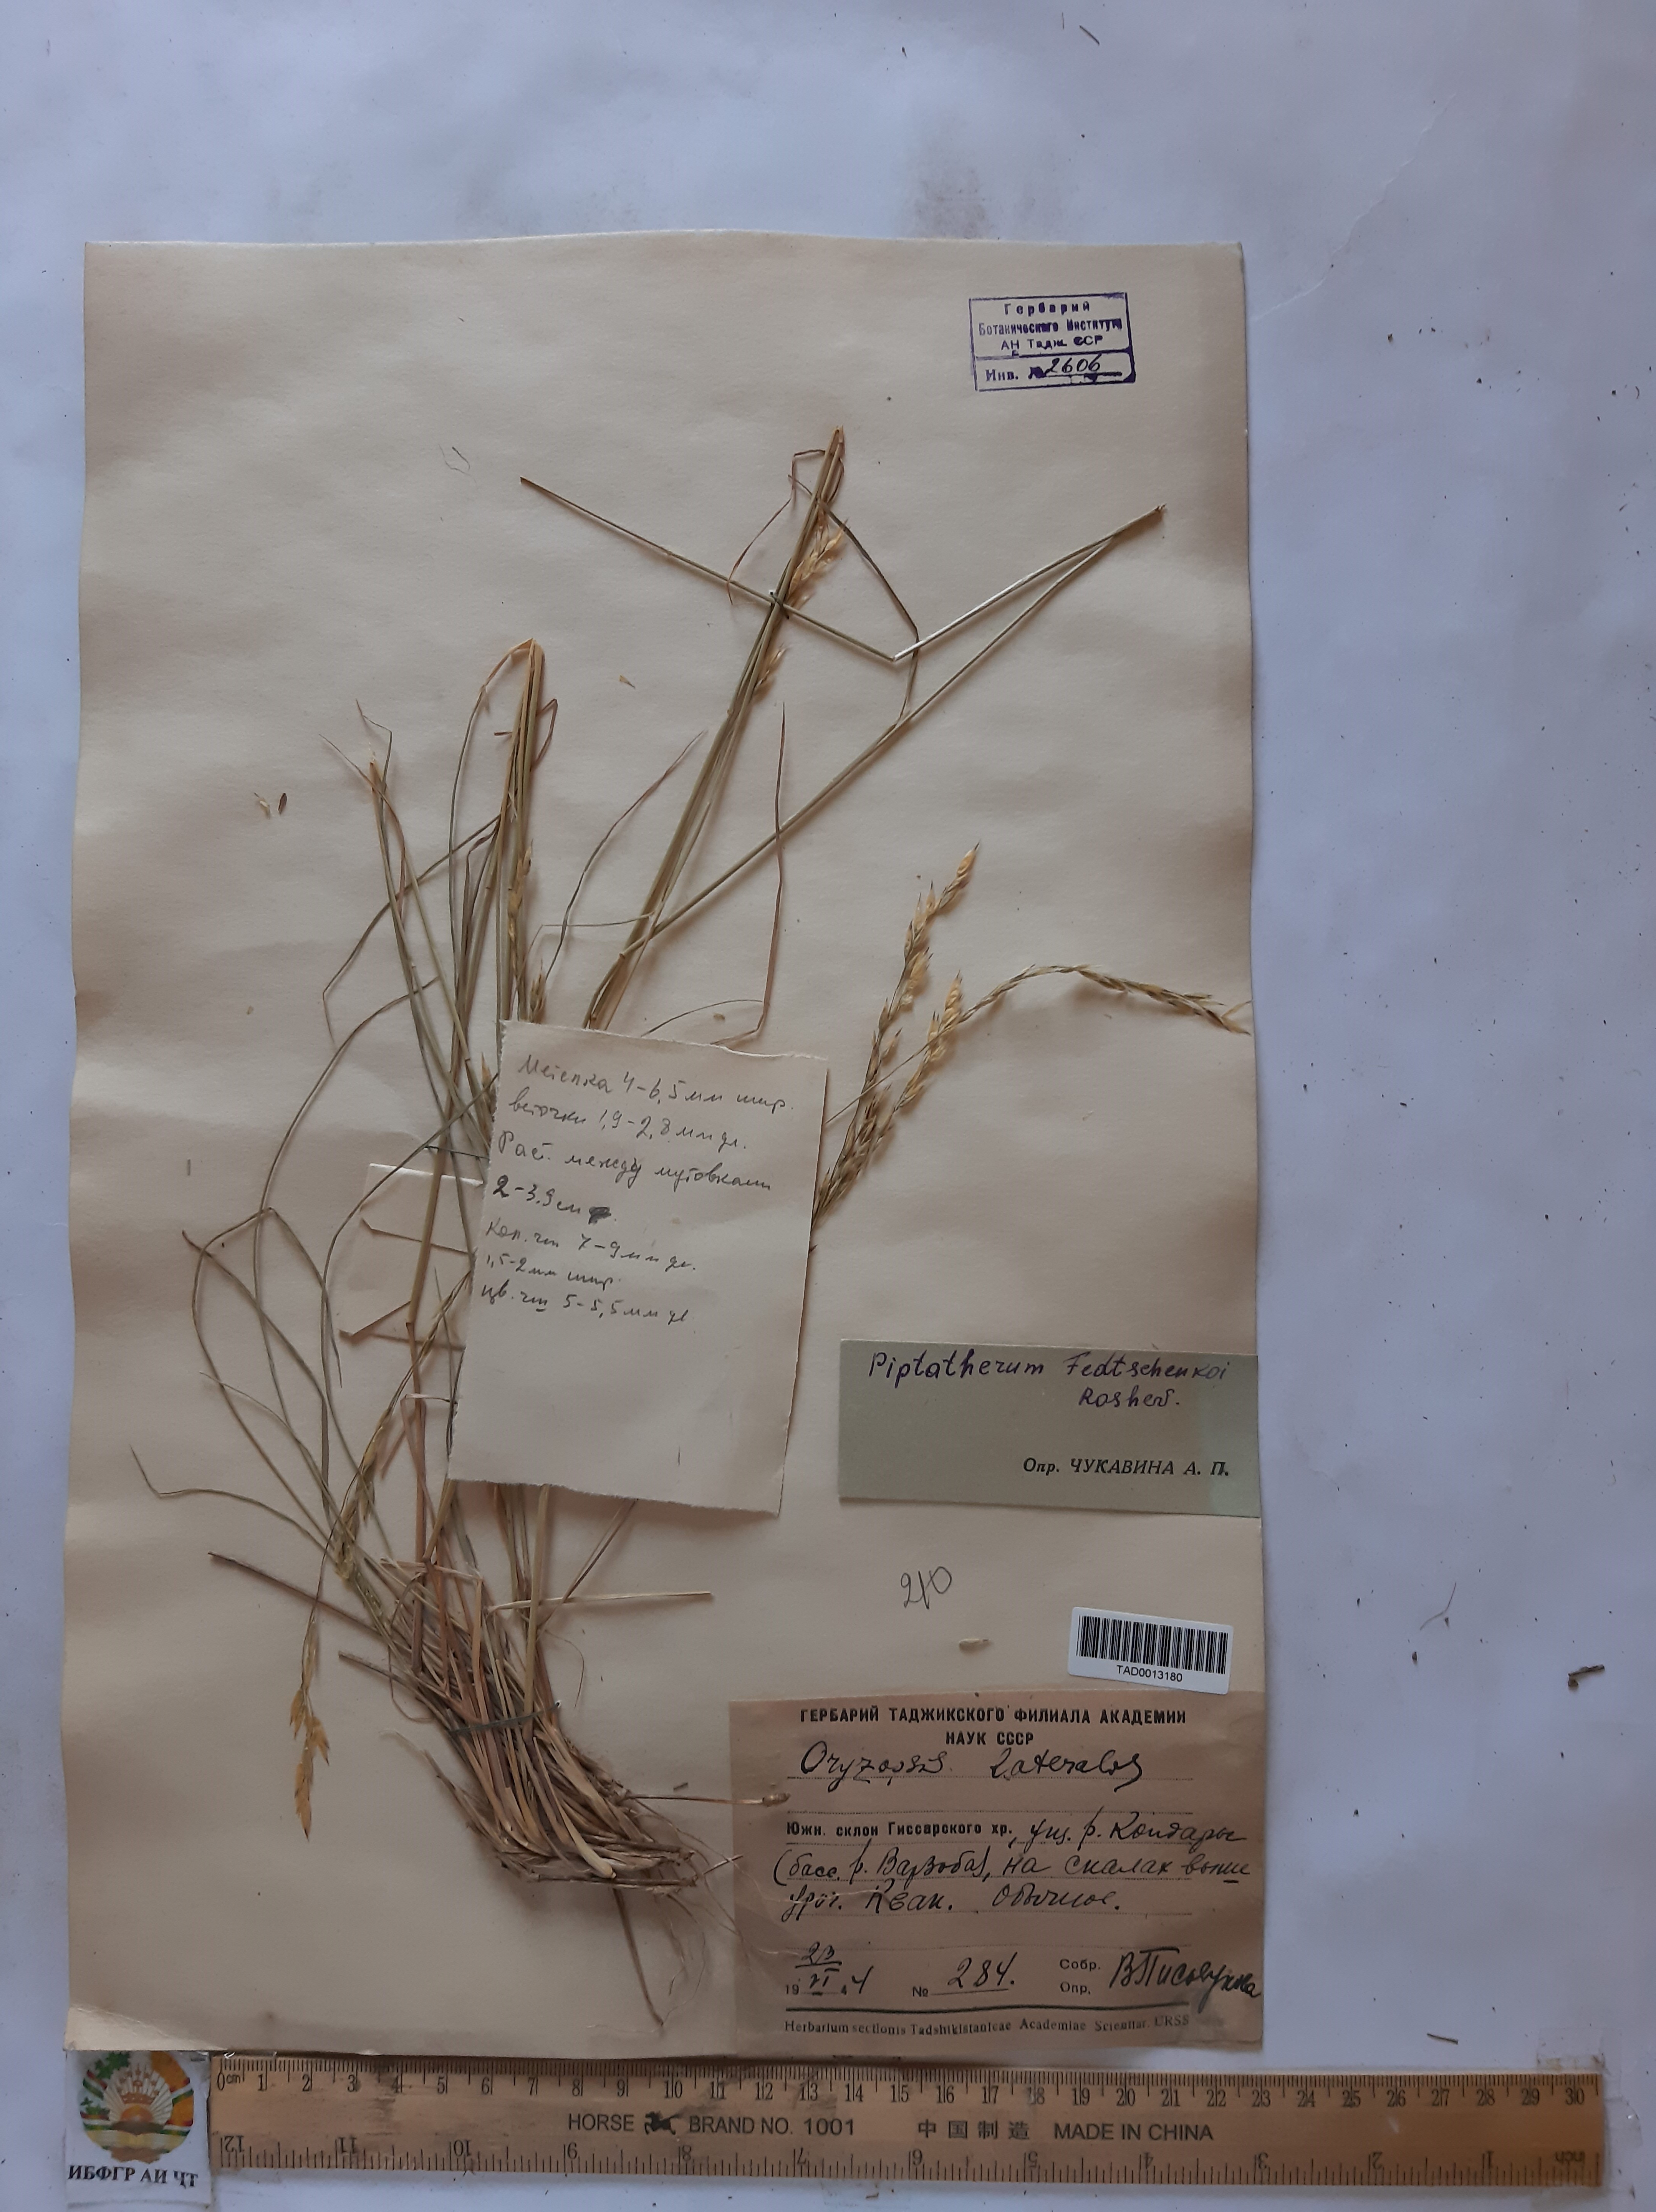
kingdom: Plantae
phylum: Tracheophyta
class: Liliopsida
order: Poales
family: Poaceae
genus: Piptatherum
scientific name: Piptatherum sogdianum
